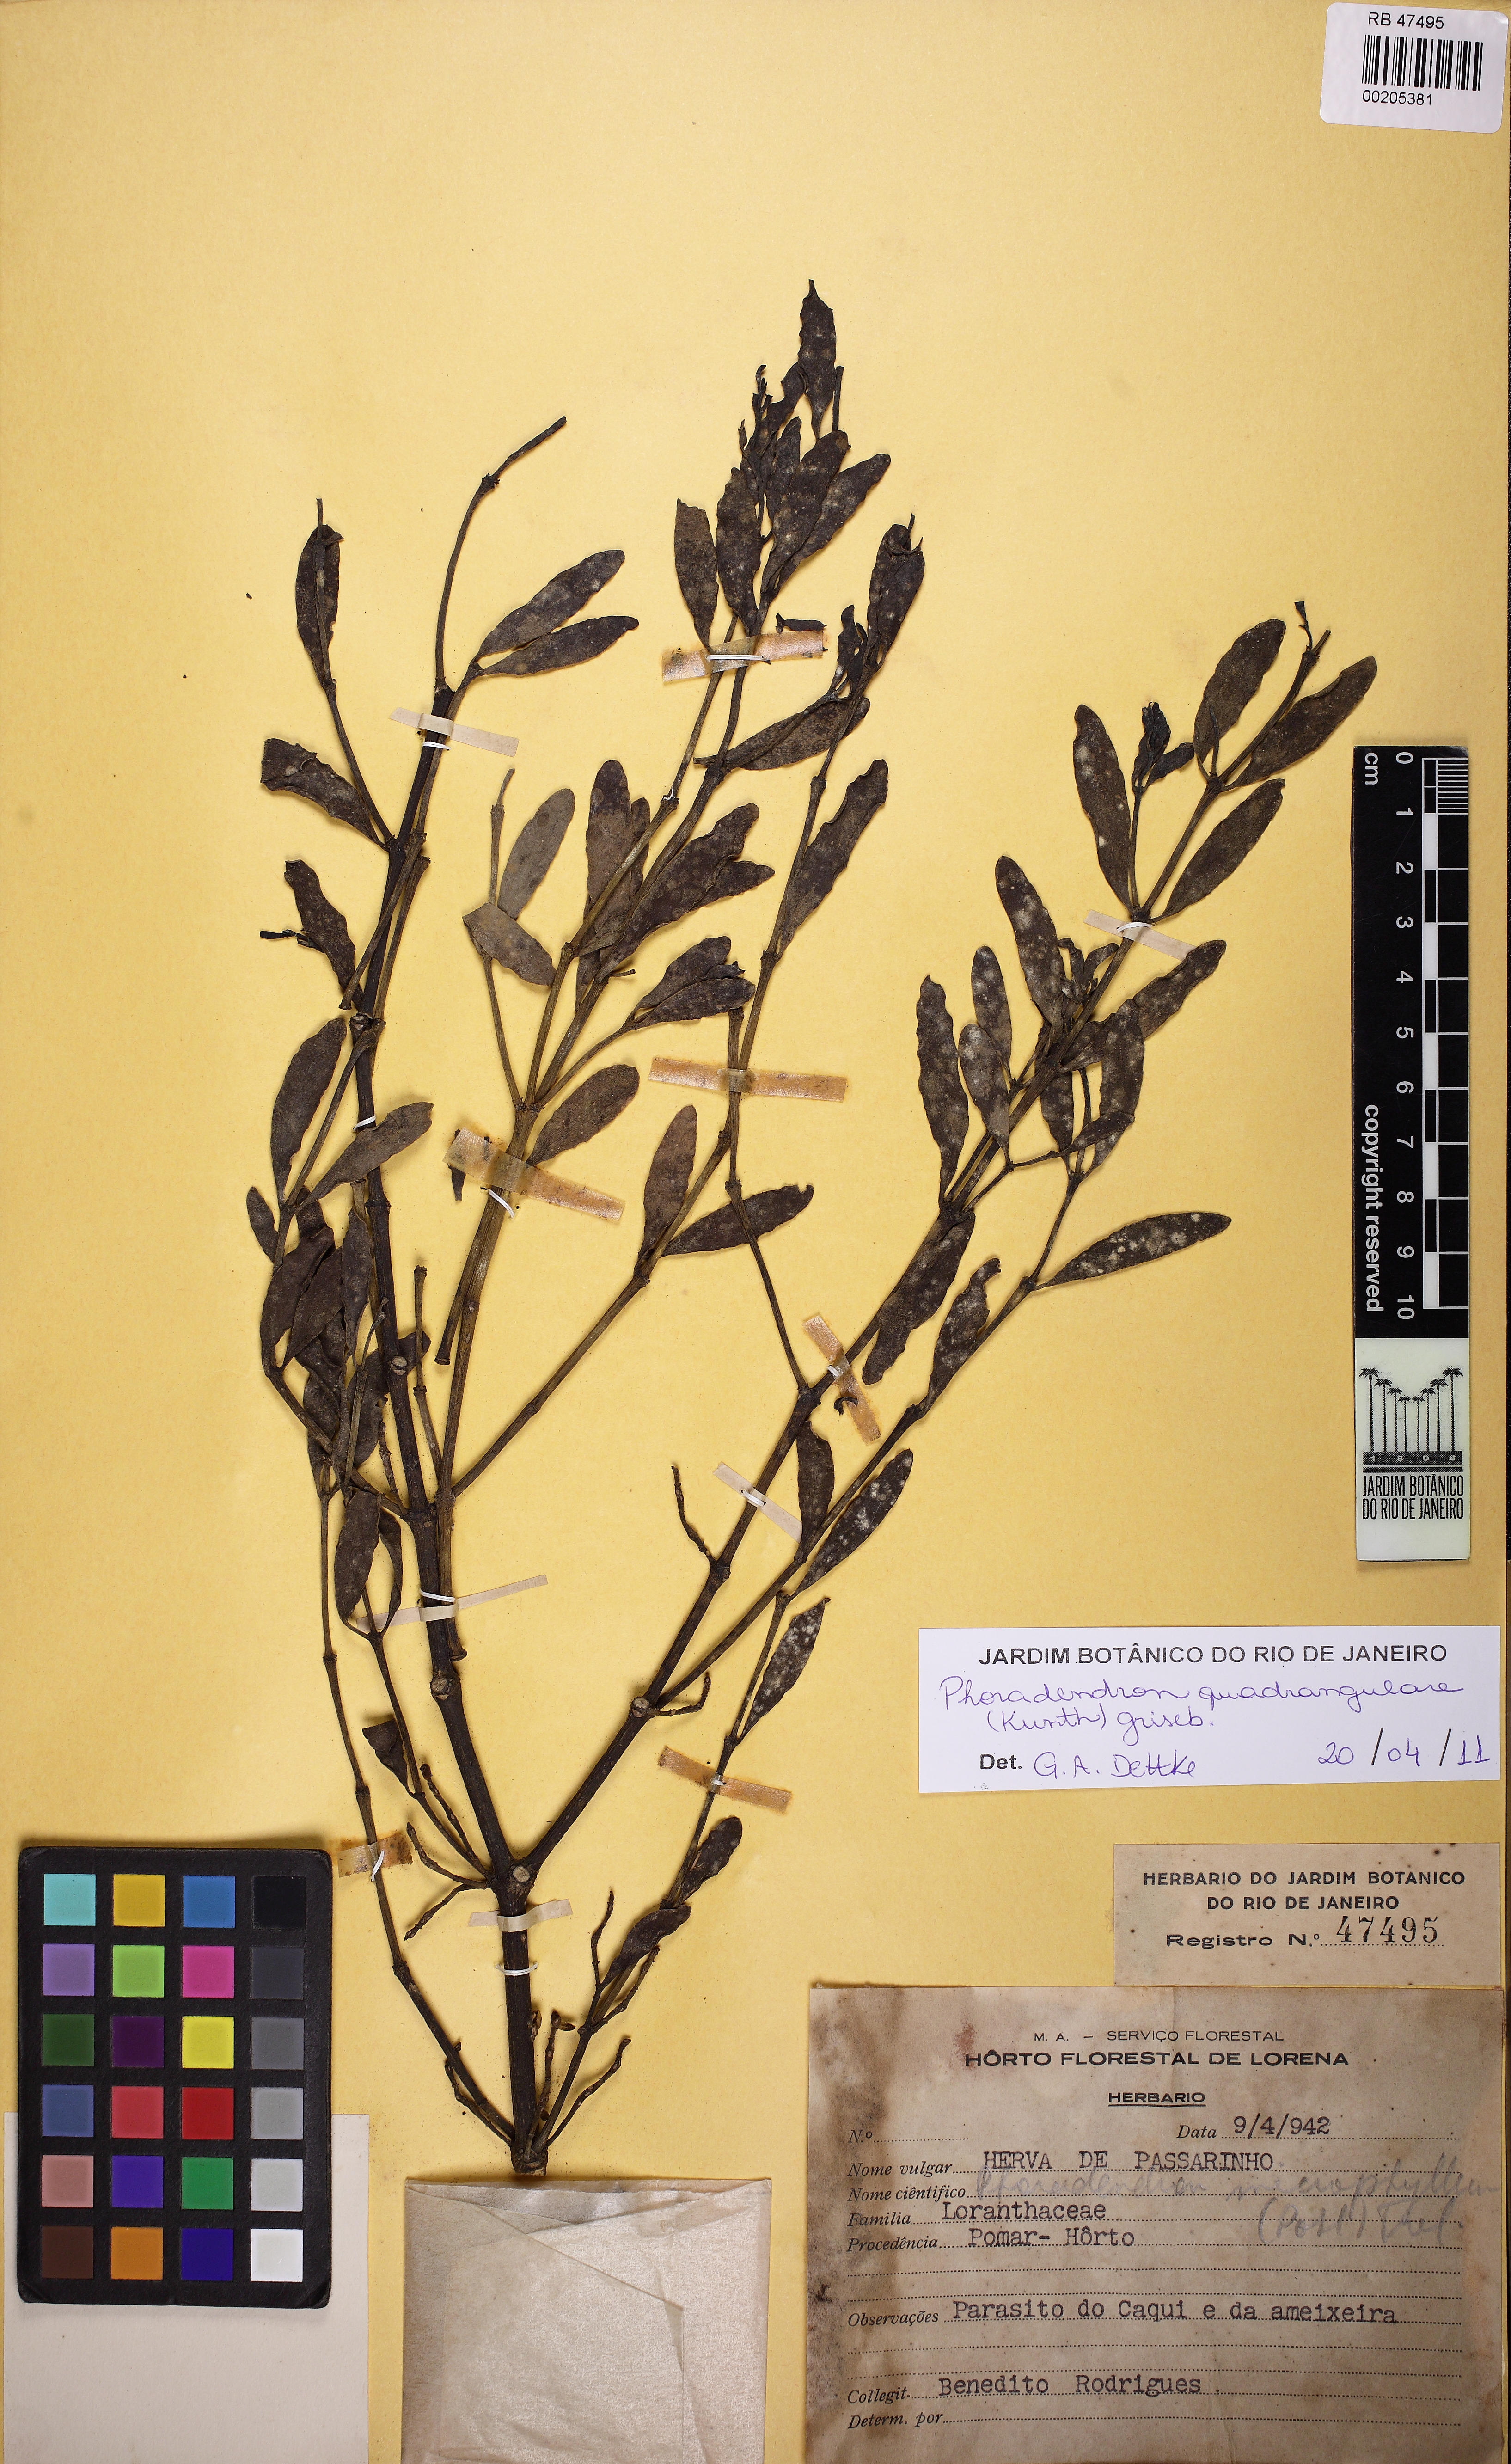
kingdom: Plantae
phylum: Tracheophyta
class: Magnoliopsida
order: Santalales
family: Viscaceae
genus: Phoradendron
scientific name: Phoradendron quadrangulare
